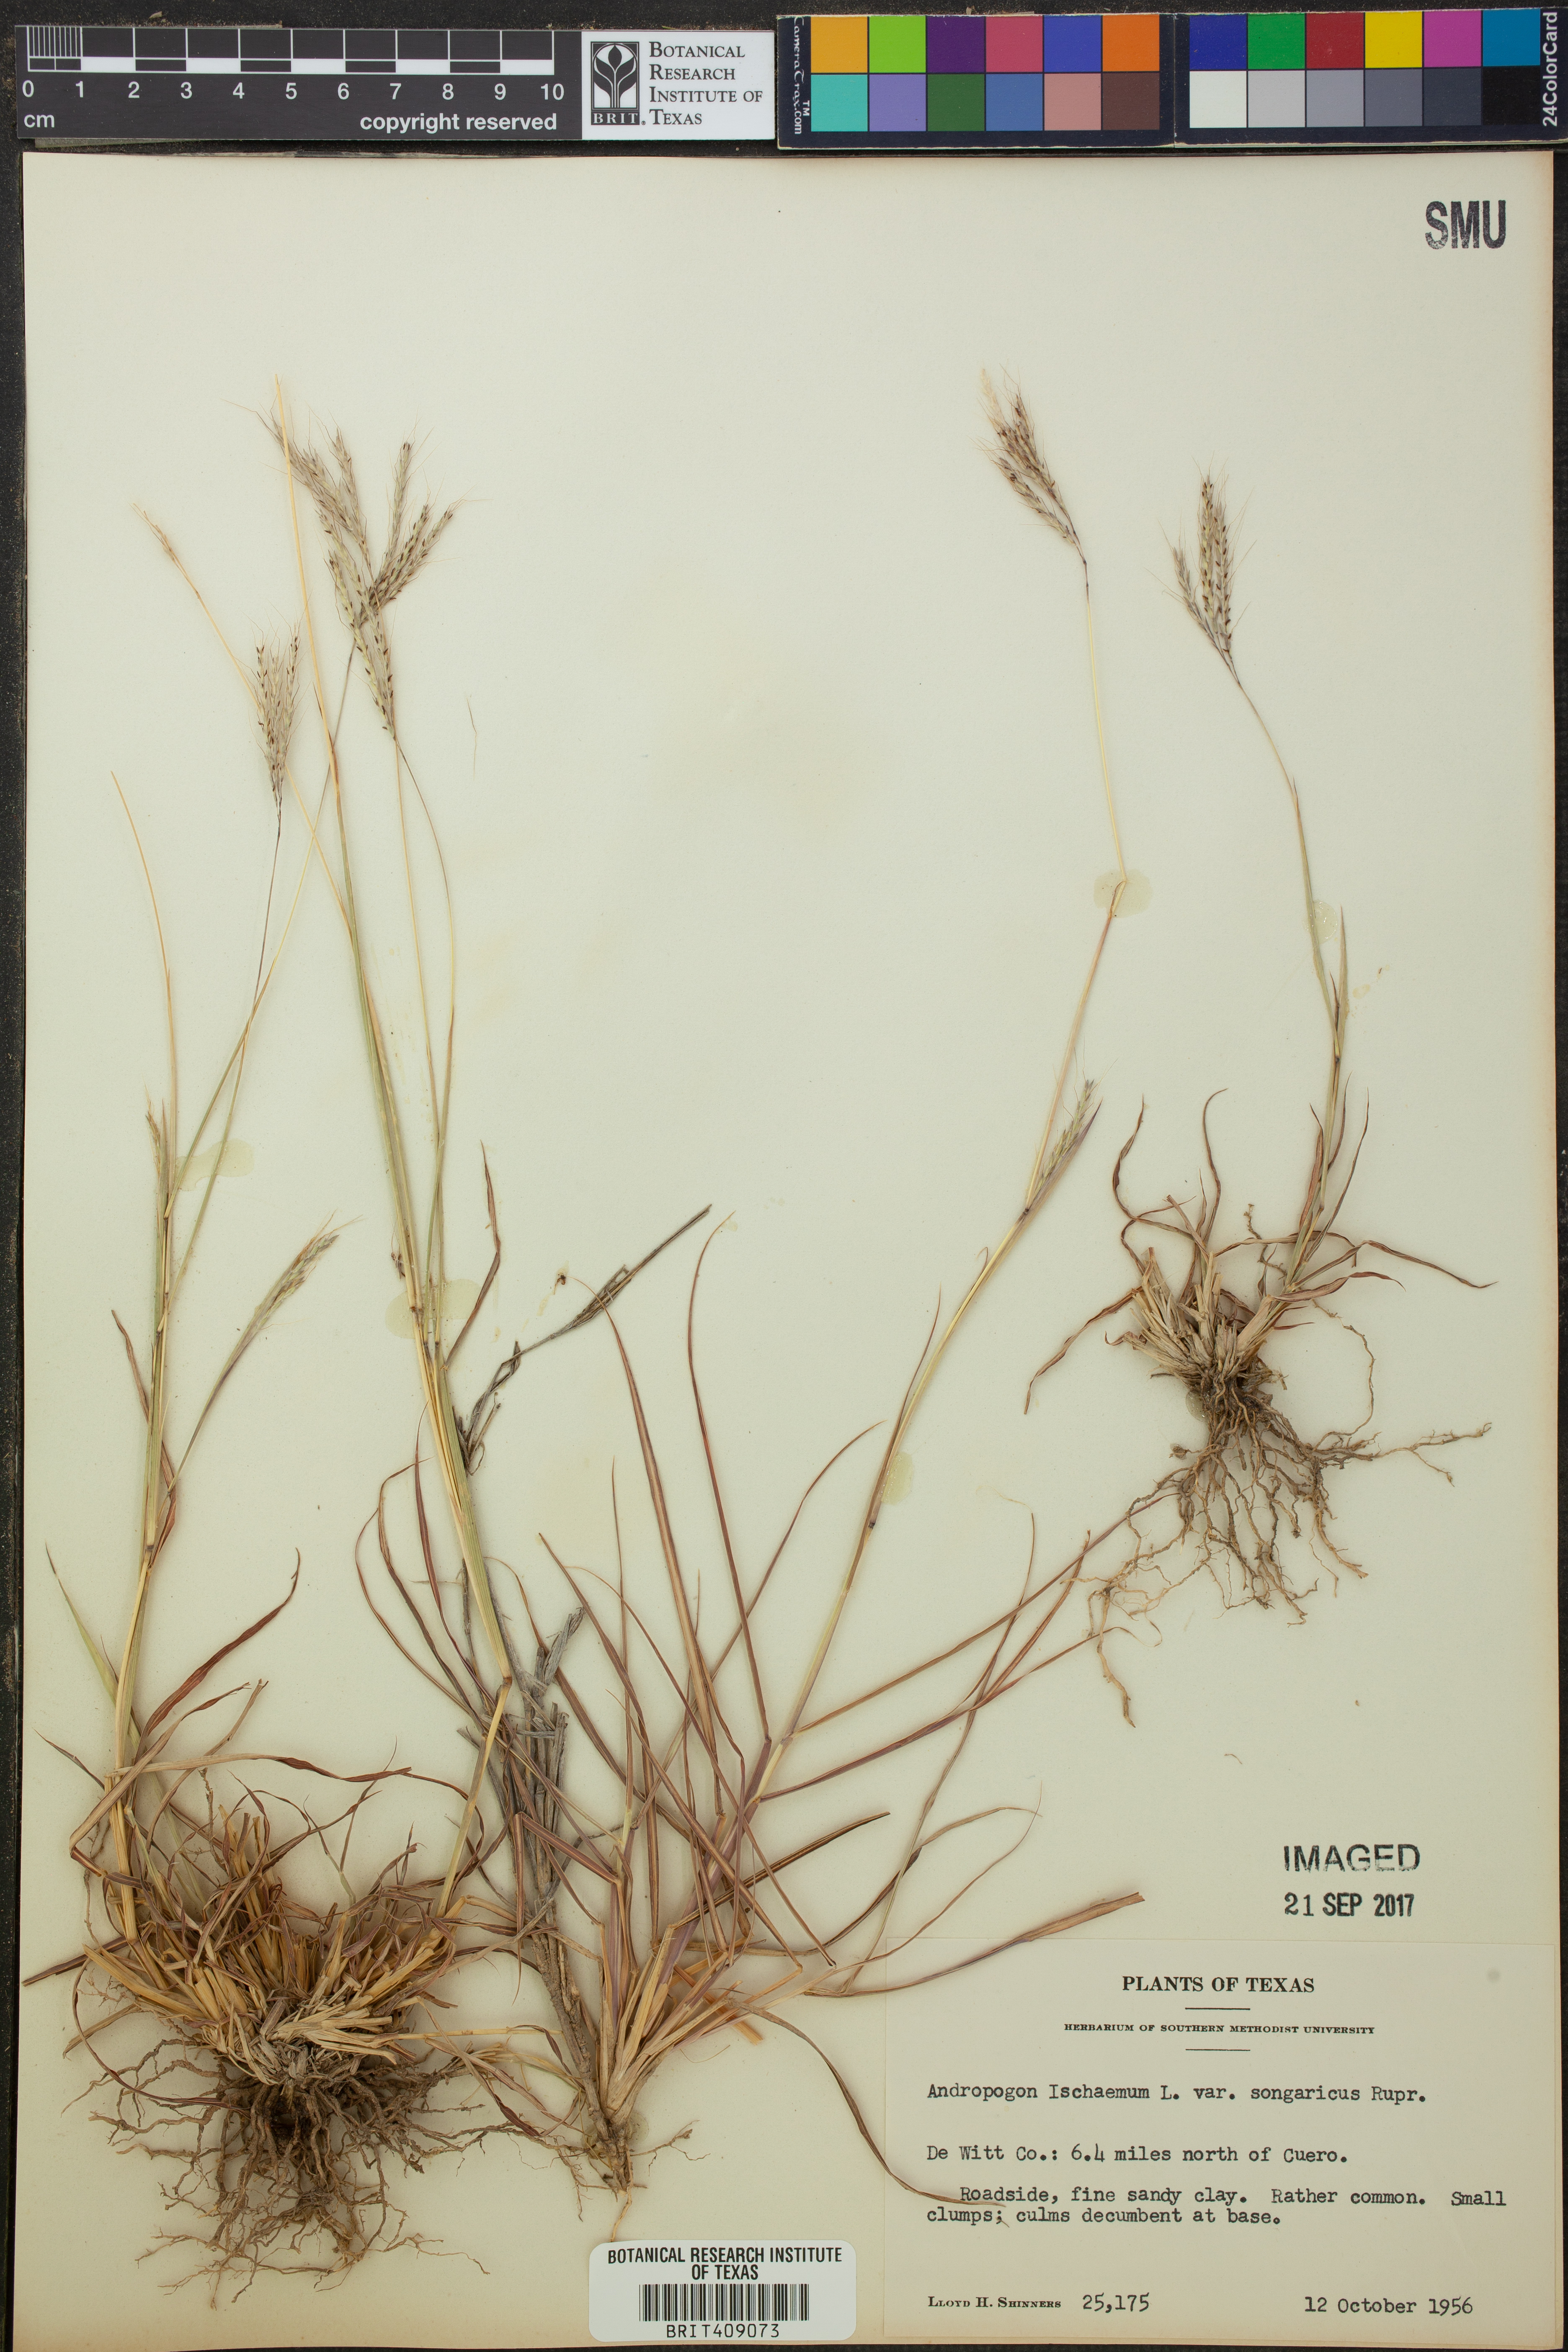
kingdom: Plantae
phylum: Tracheophyta
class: Liliopsida
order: Poales
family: Poaceae
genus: Bothriochloa
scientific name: Bothriochloa ischaemum
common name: Yellow bluestem
